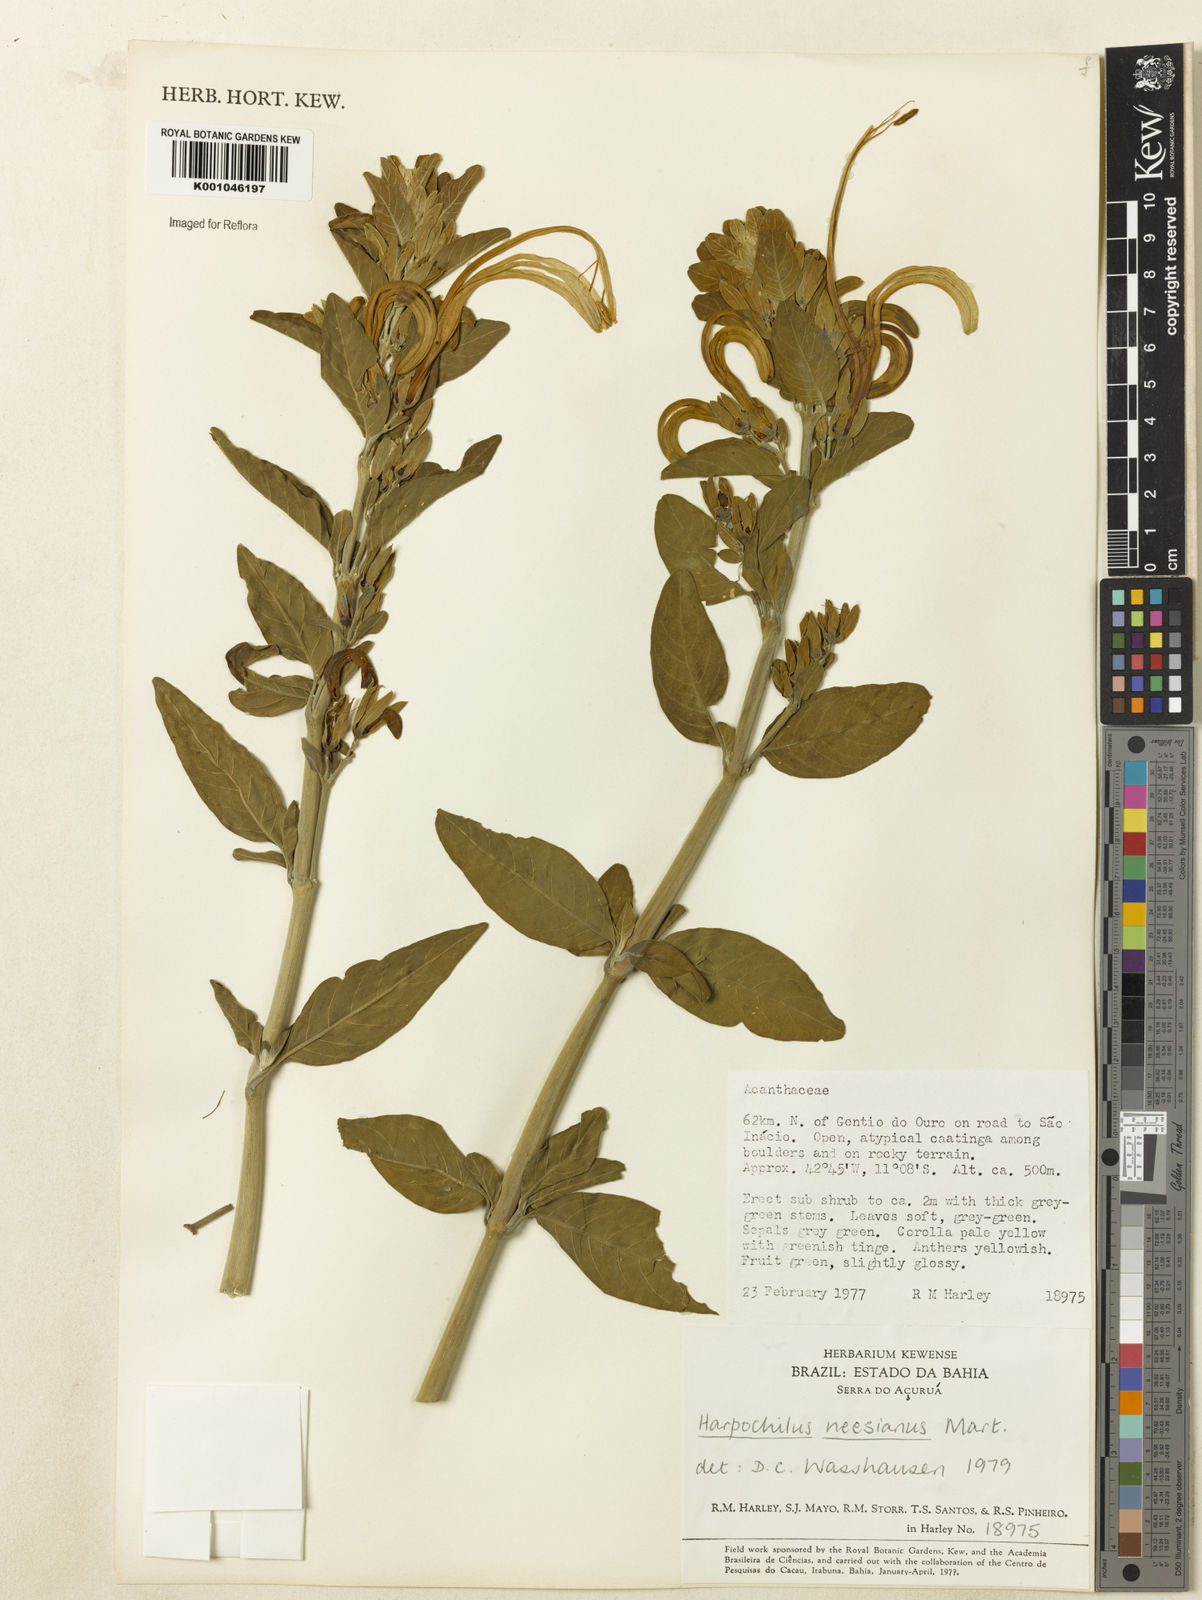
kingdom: Plantae
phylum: Tracheophyta
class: Magnoliopsida
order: Lamiales
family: Acanthaceae
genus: Harpochilus
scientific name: Harpochilus neesianus
